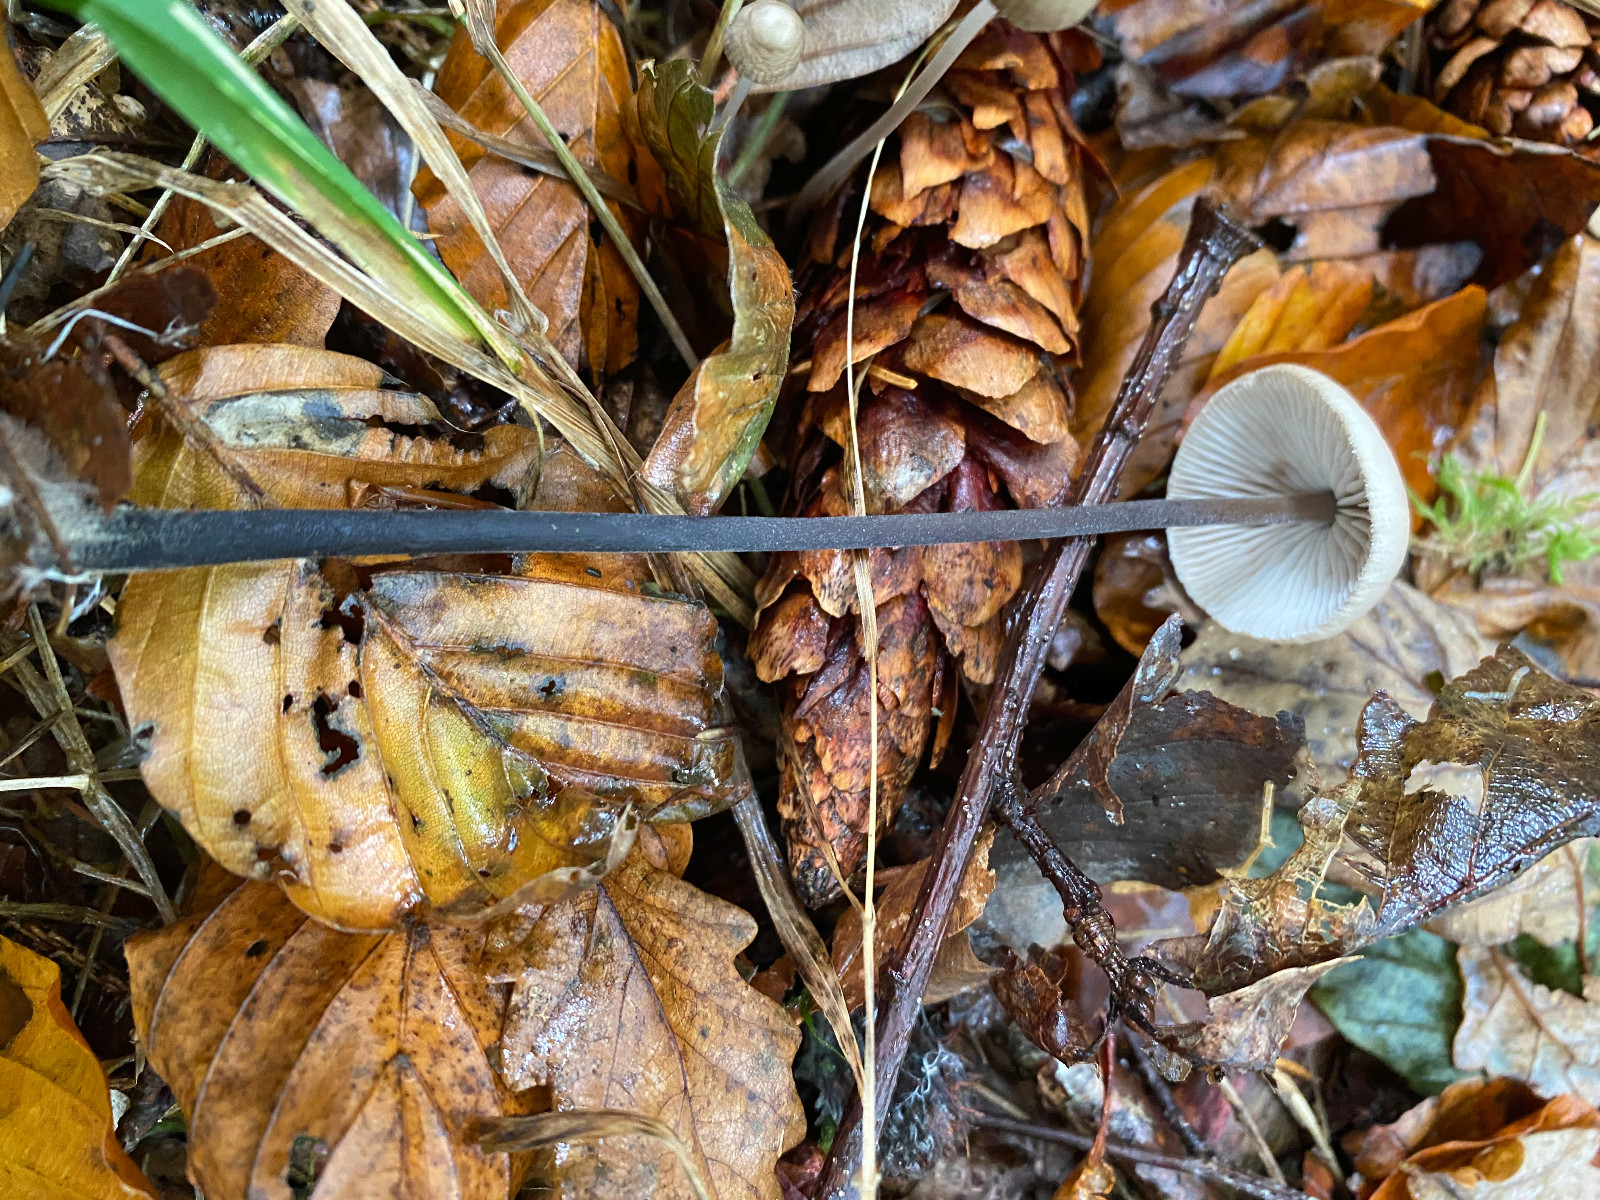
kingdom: Fungi
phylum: Basidiomycota
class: Agaricomycetes
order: Agaricales
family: Omphalotaceae
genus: Mycetinis
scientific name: Mycetinis alliaceus
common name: stor løghat
